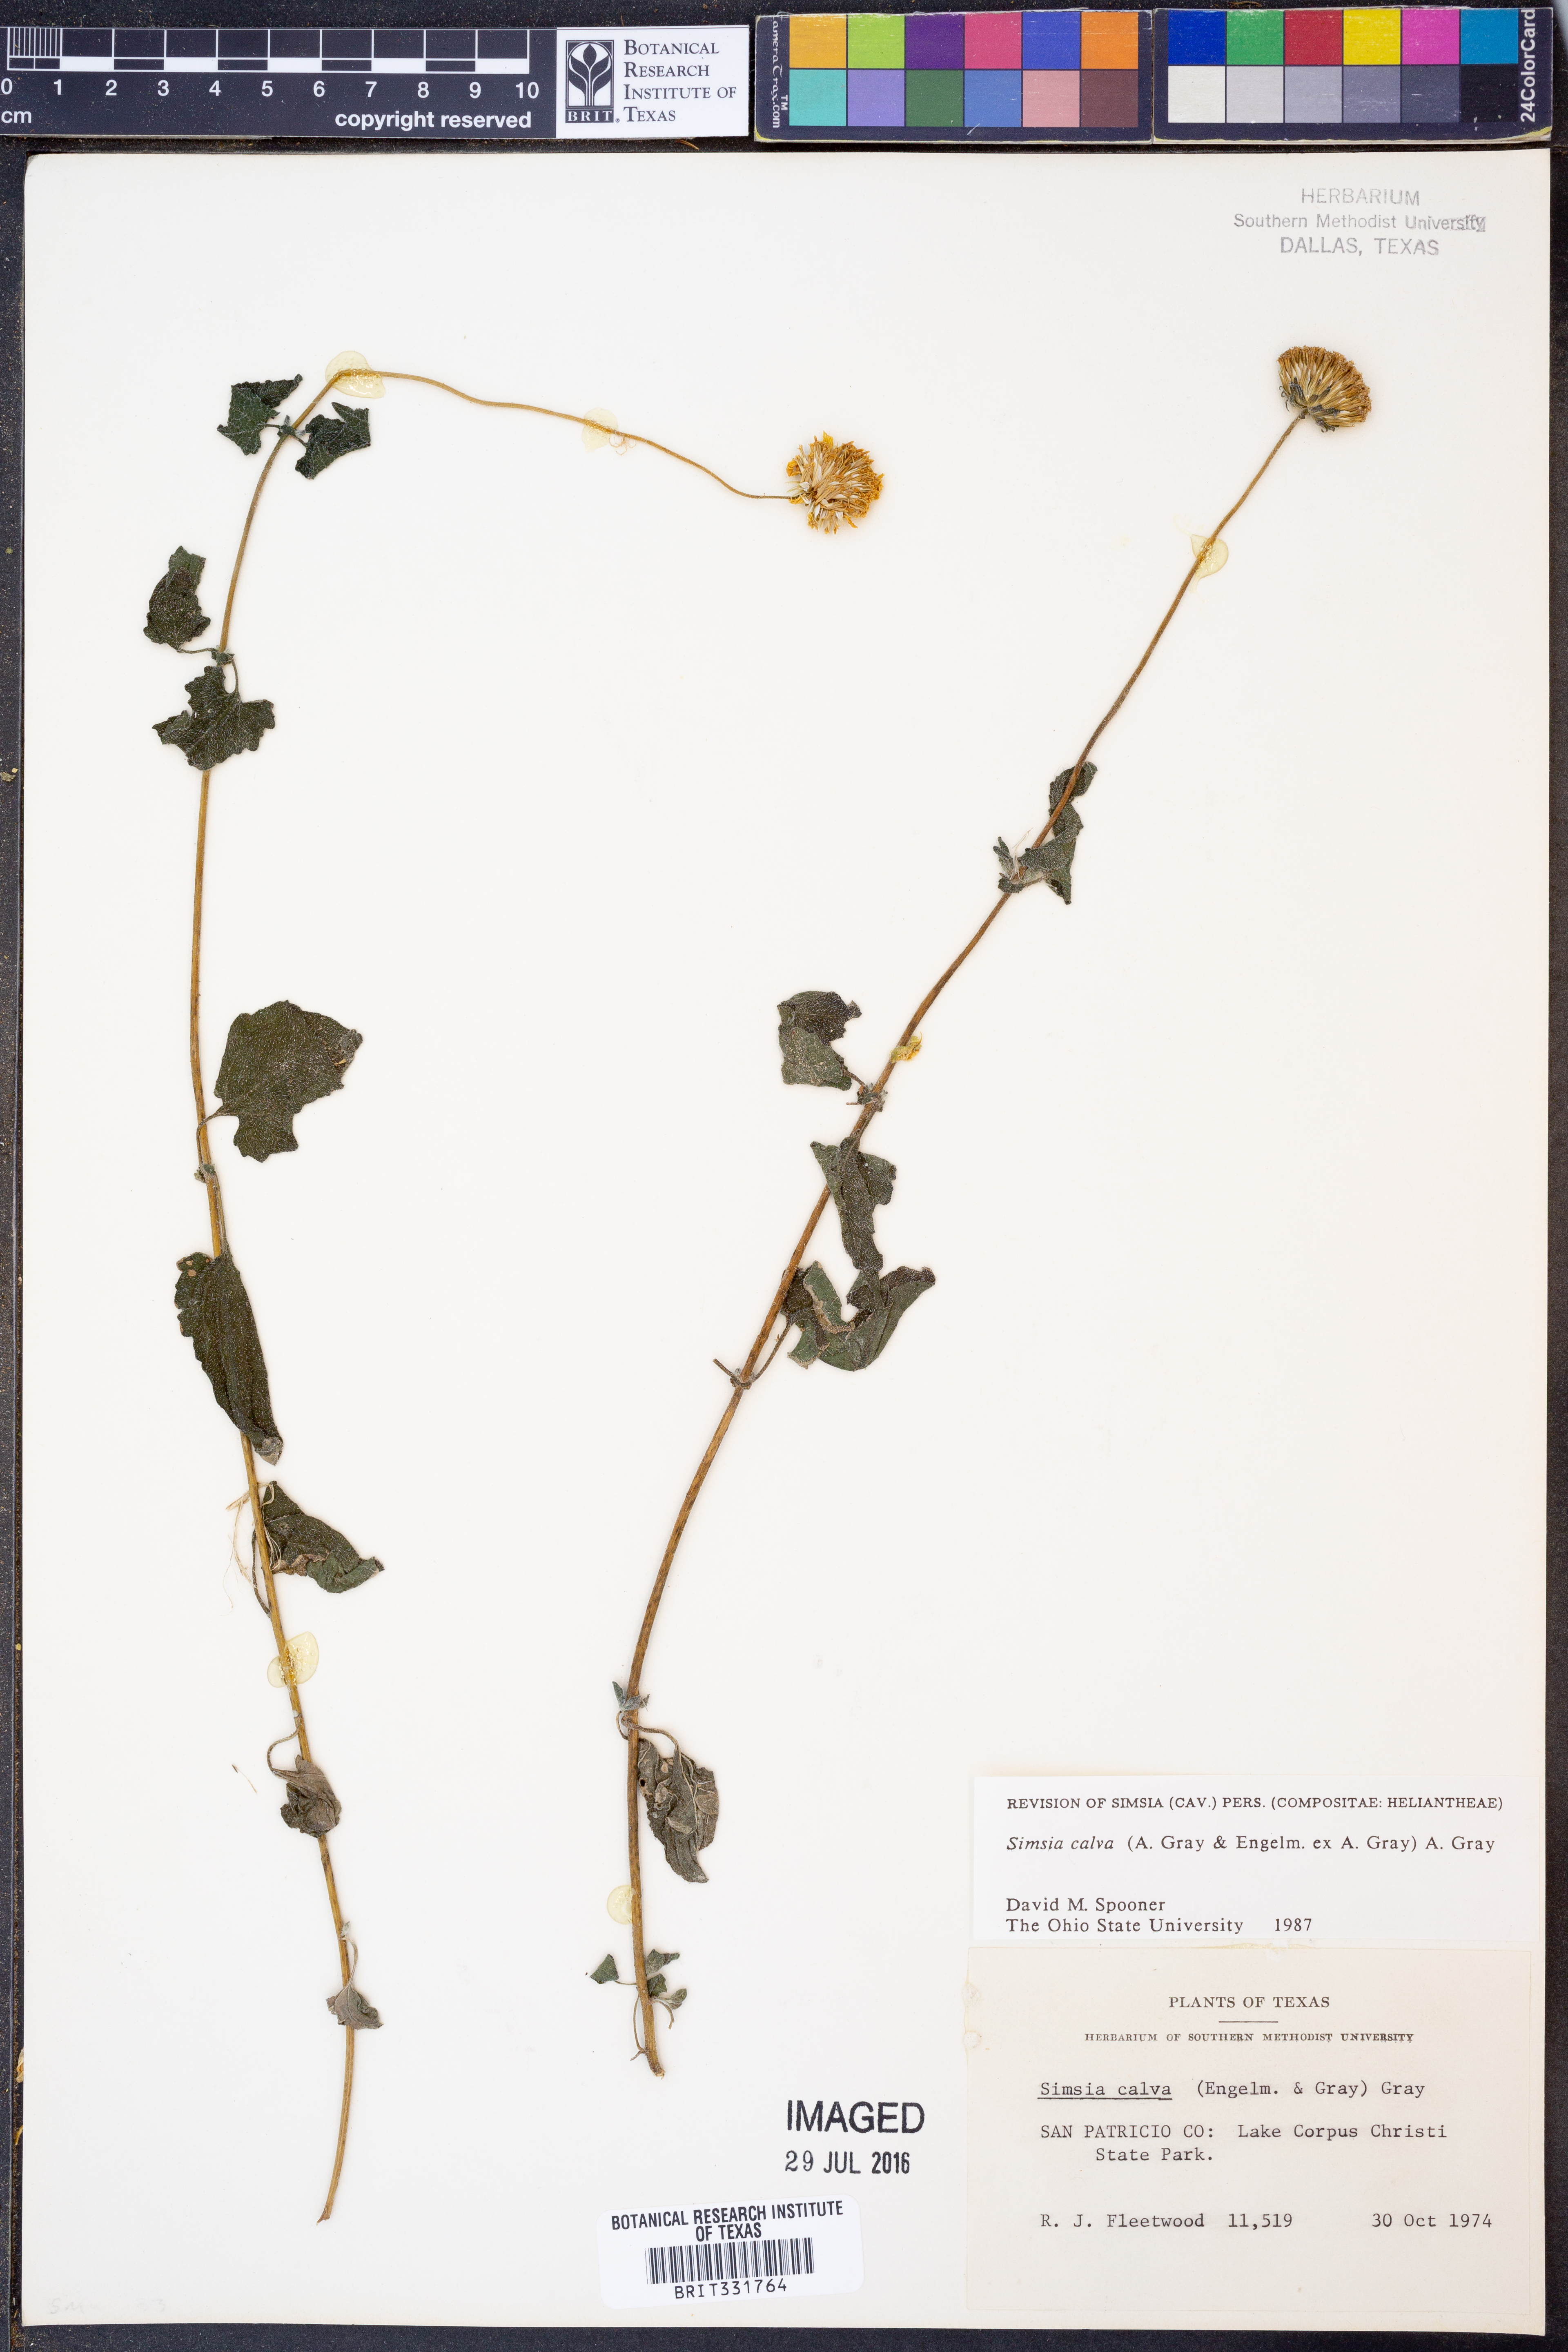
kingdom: Plantae
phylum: Tracheophyta
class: Magnoliopsida
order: Asterales
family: Asteraceae
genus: Simsia
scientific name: Simsia calva
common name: Awnless bush-sunflower
